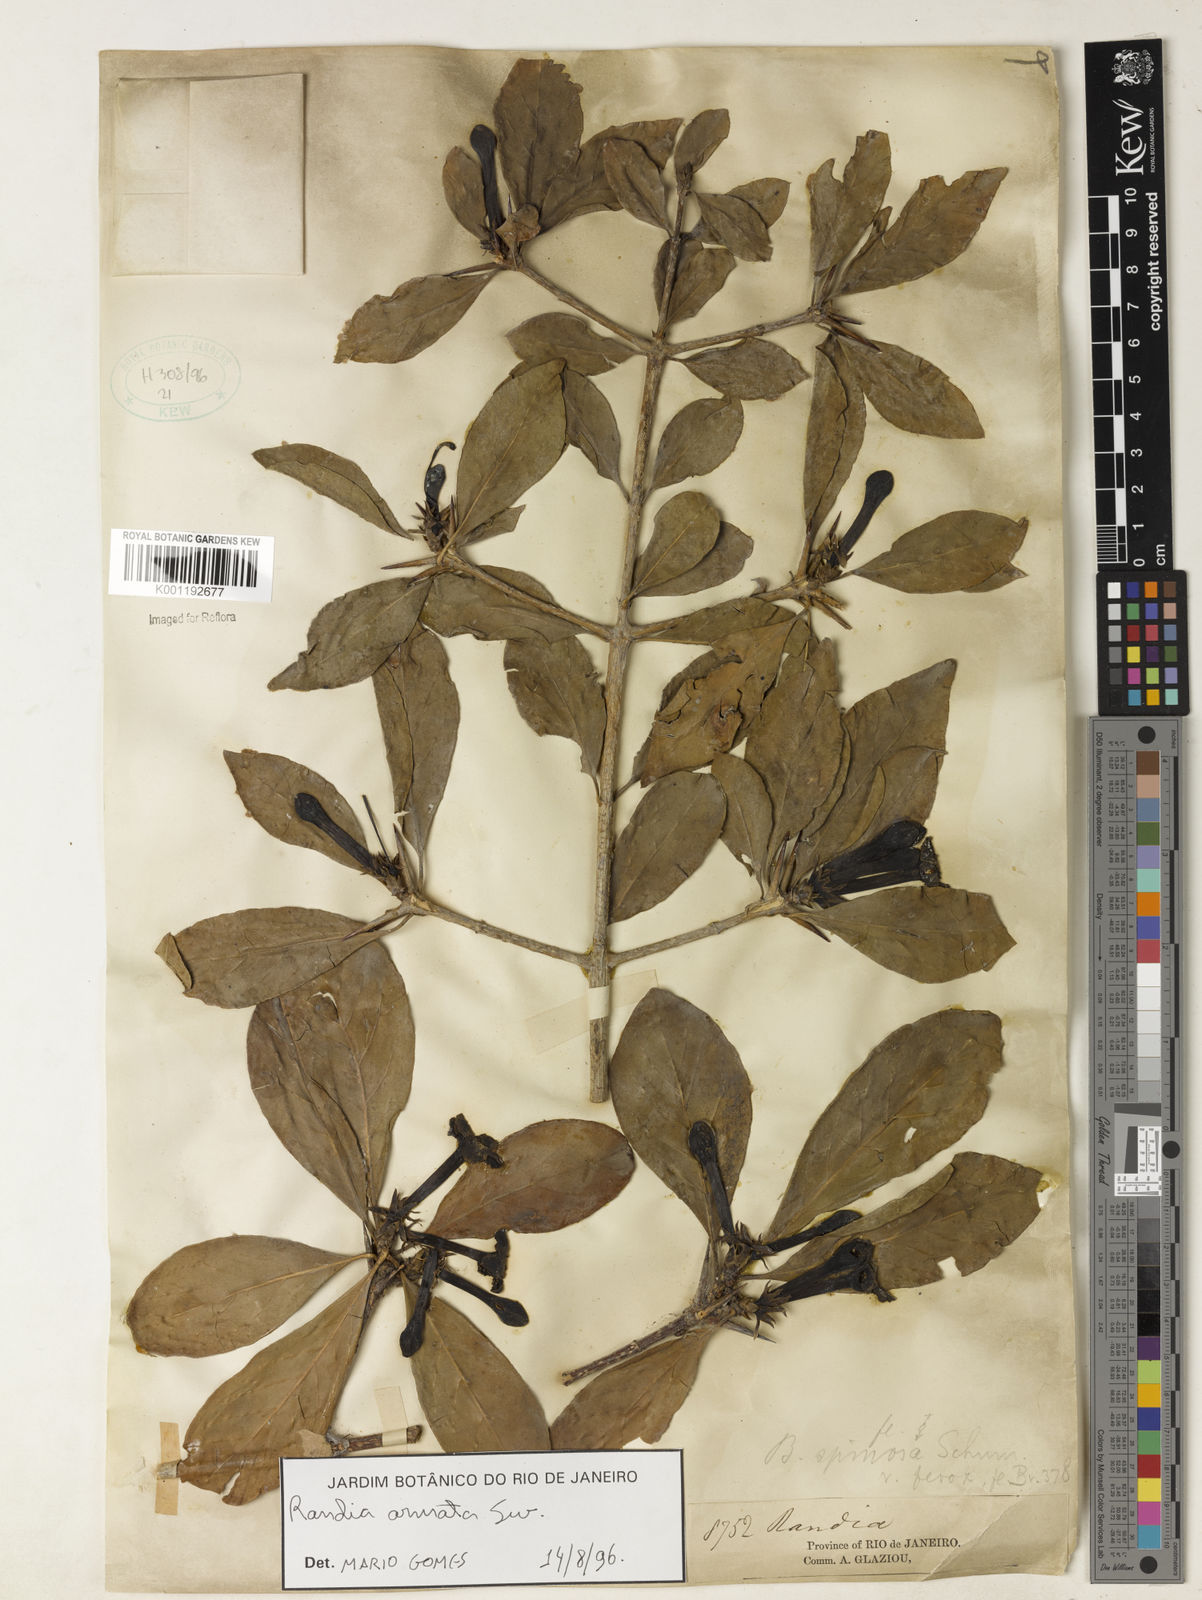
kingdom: Plantae
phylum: Tracheophyta
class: Magnoliopsida
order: Gentianales
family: Rubiaceae
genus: Randia
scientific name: Randia armata
